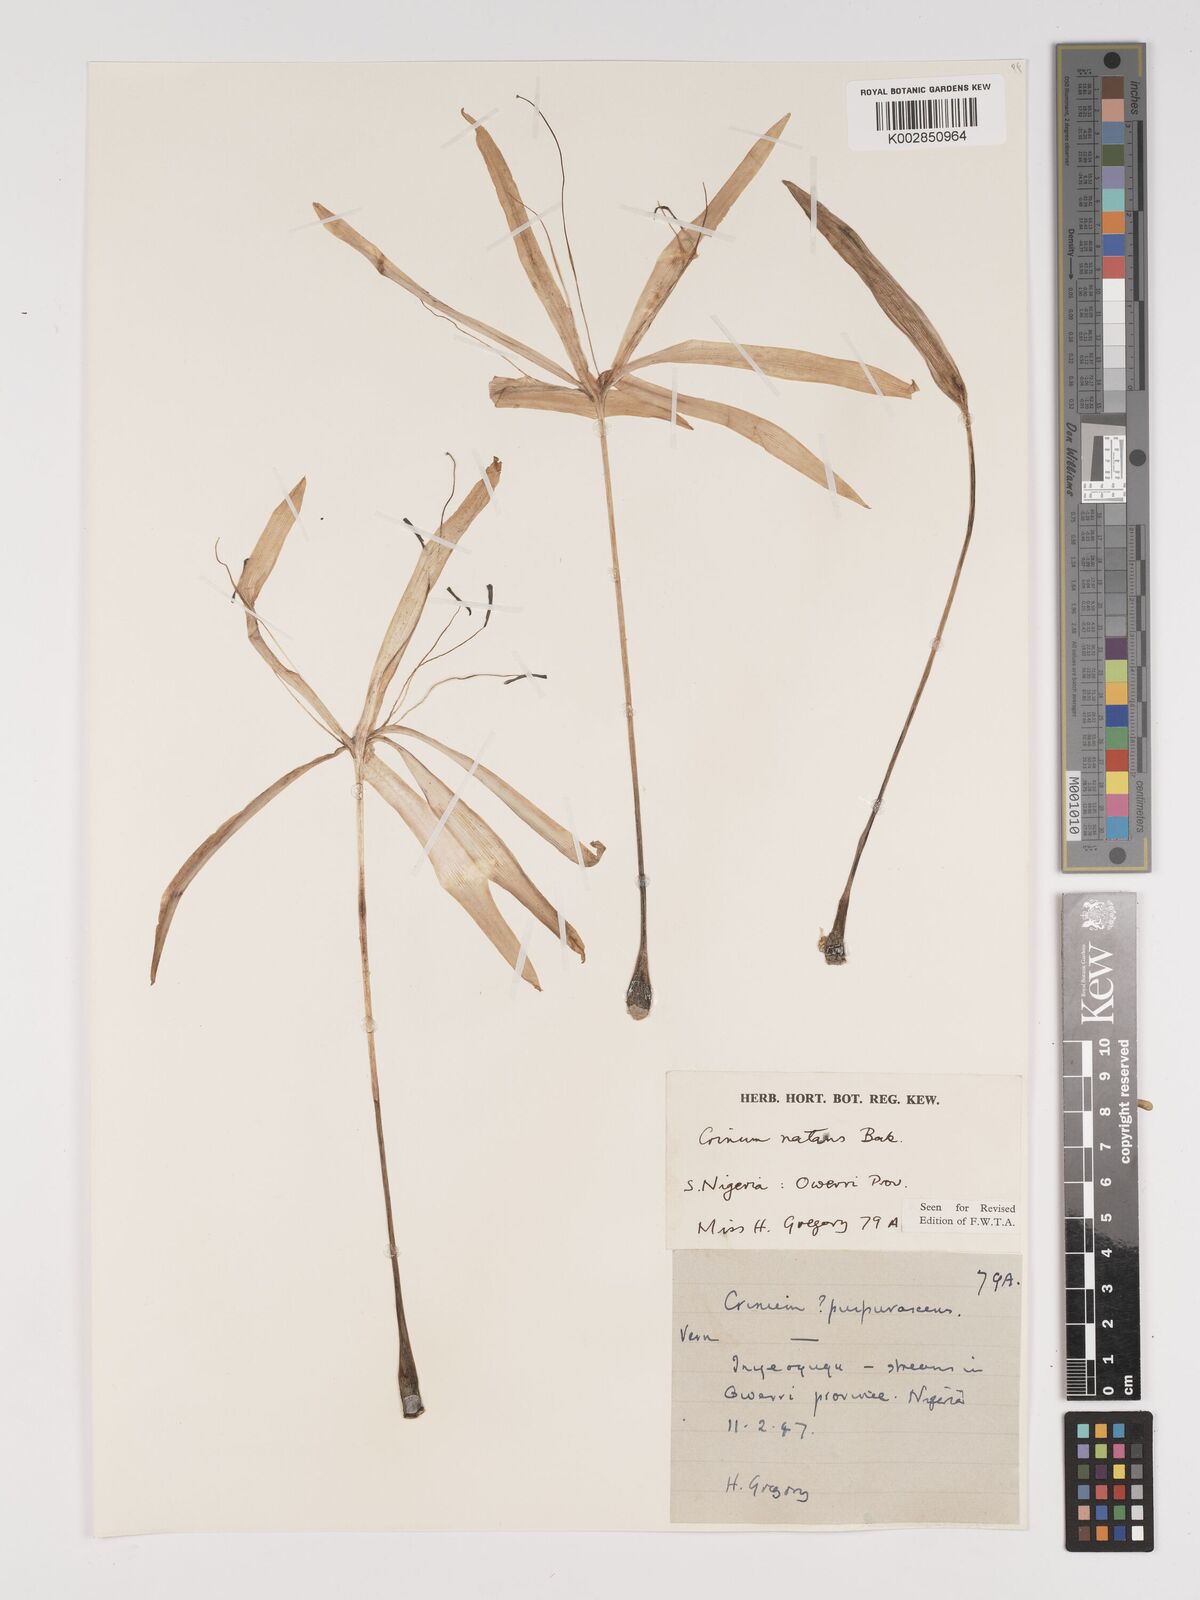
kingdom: Plantae
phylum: Tracheophyta
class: Liliopsida
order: Asparagales
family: Amaryllidaceae
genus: Crinum
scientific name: Crinum natans
